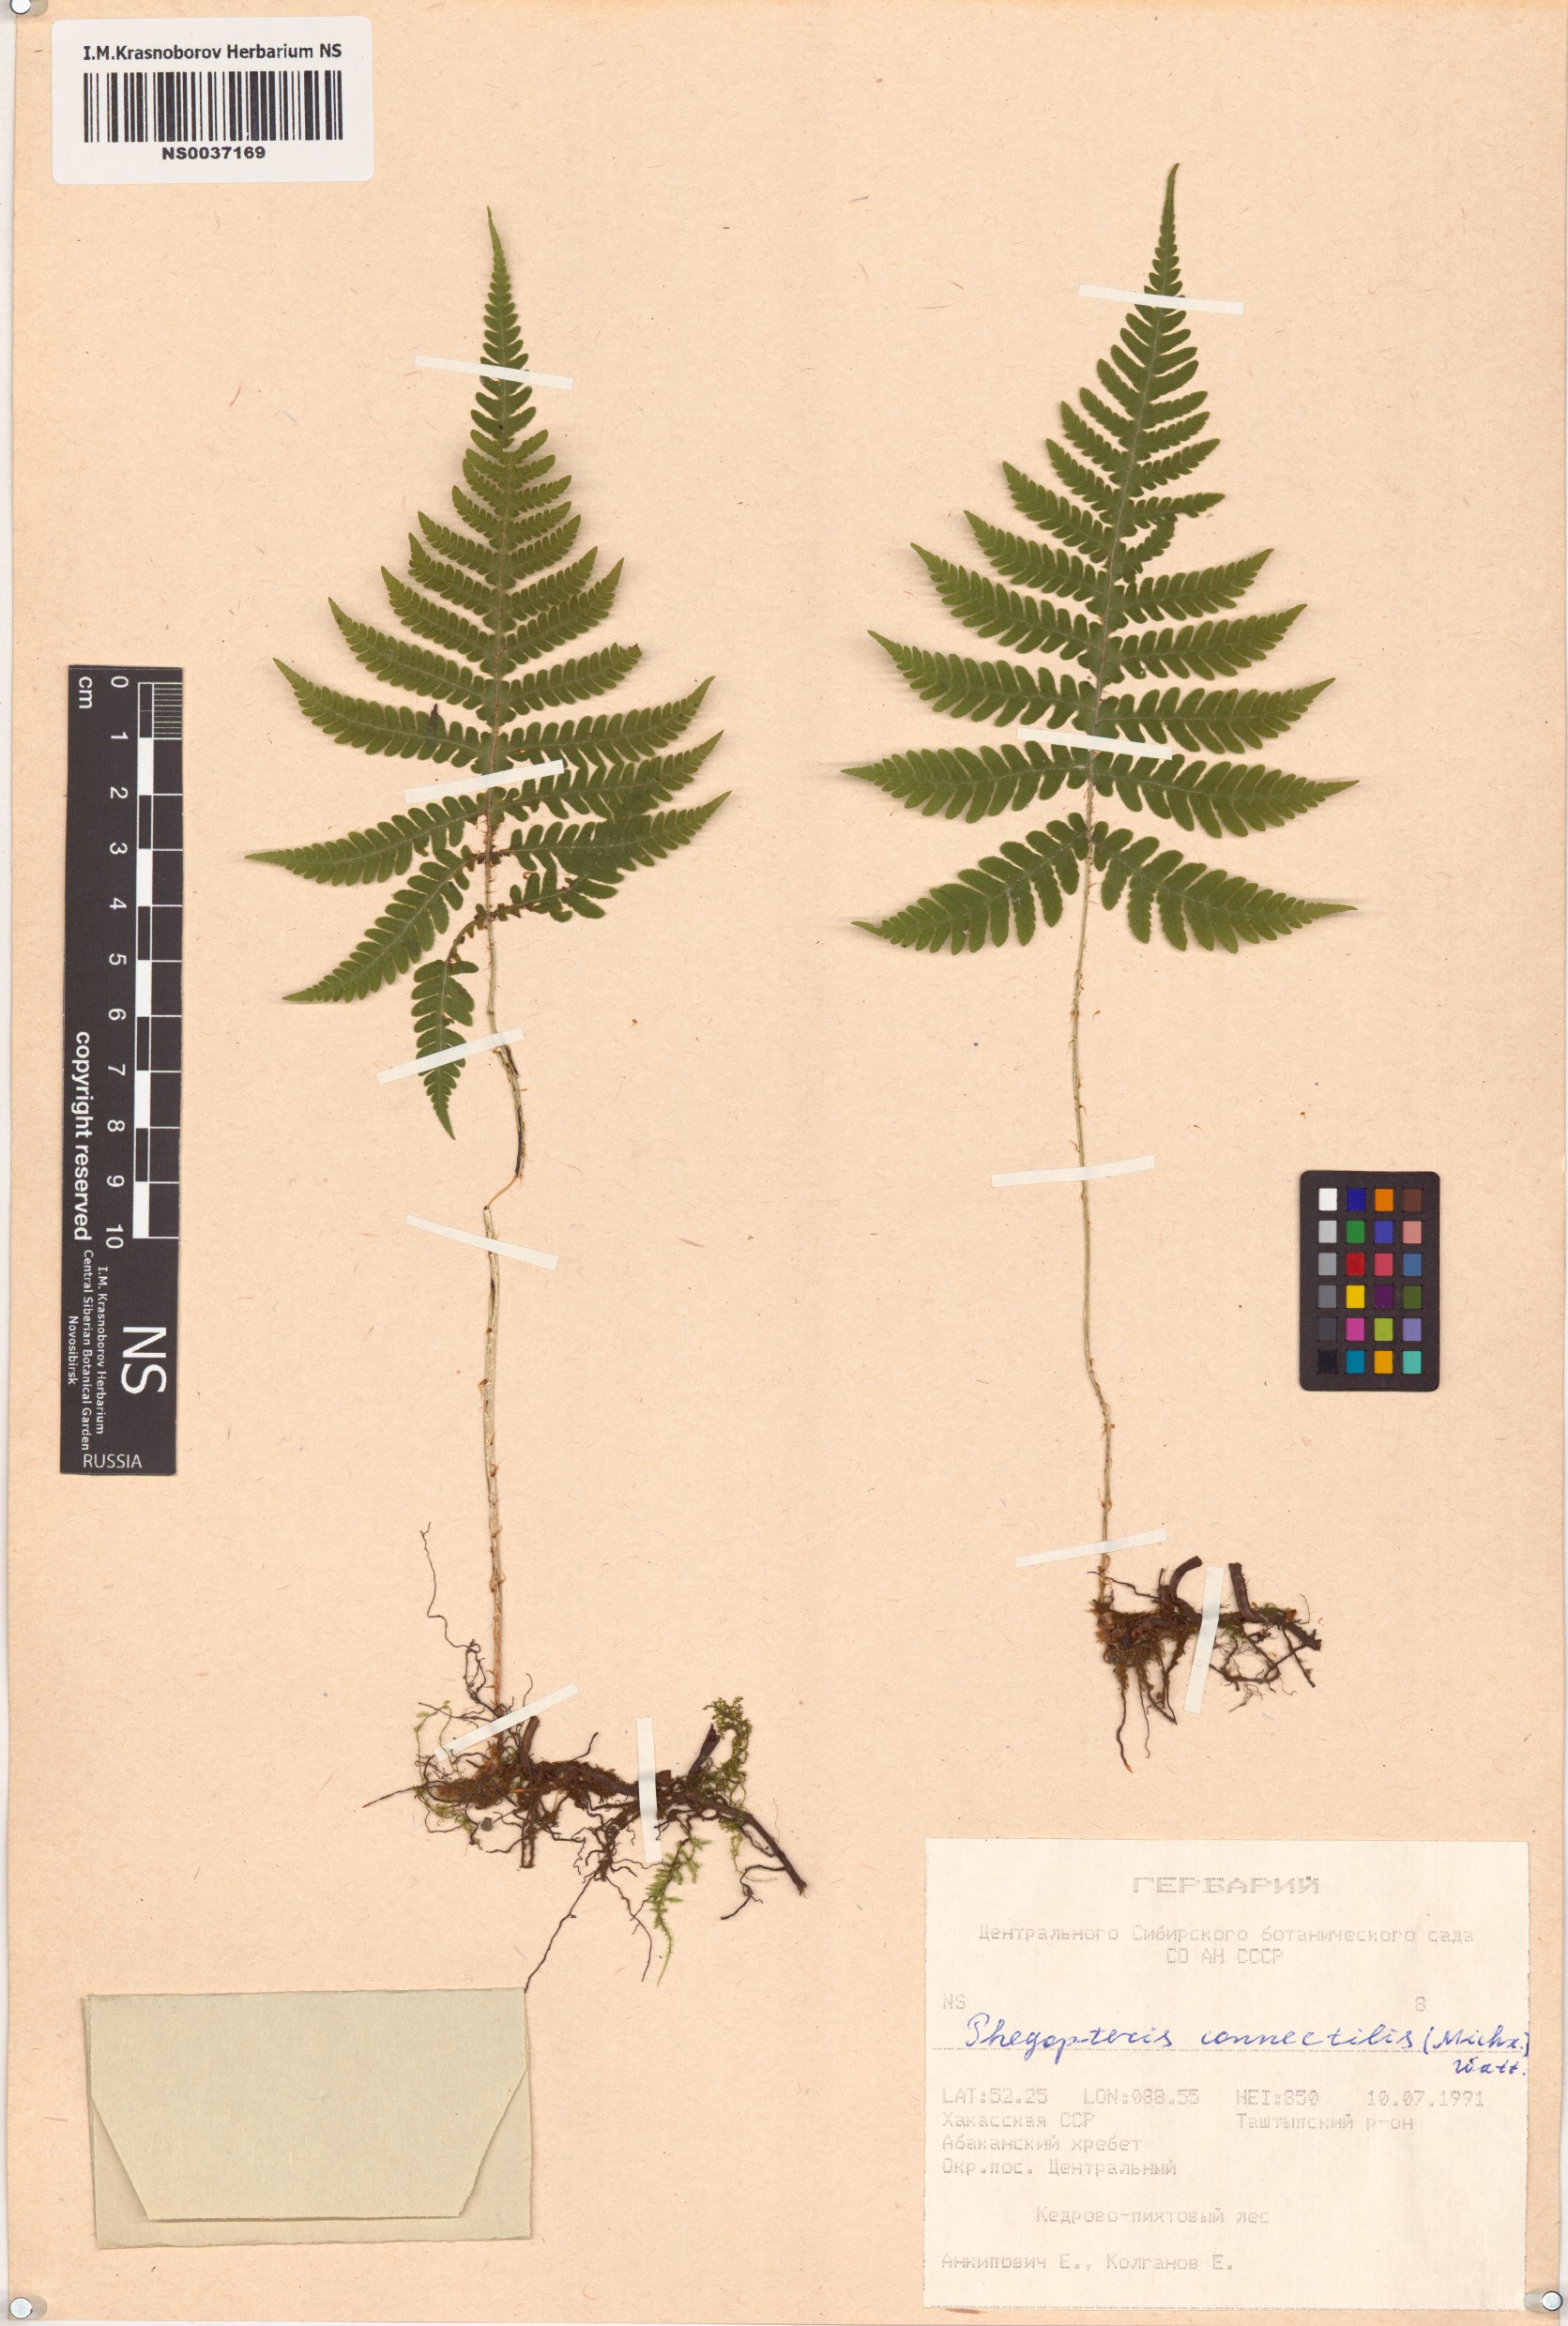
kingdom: Plantae
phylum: Tracheophyta
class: Polypodiopsida
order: Polypodiales
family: Thelypteridaceae
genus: Phegopteris
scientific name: Phegopteris connectilis
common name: Beech fern
